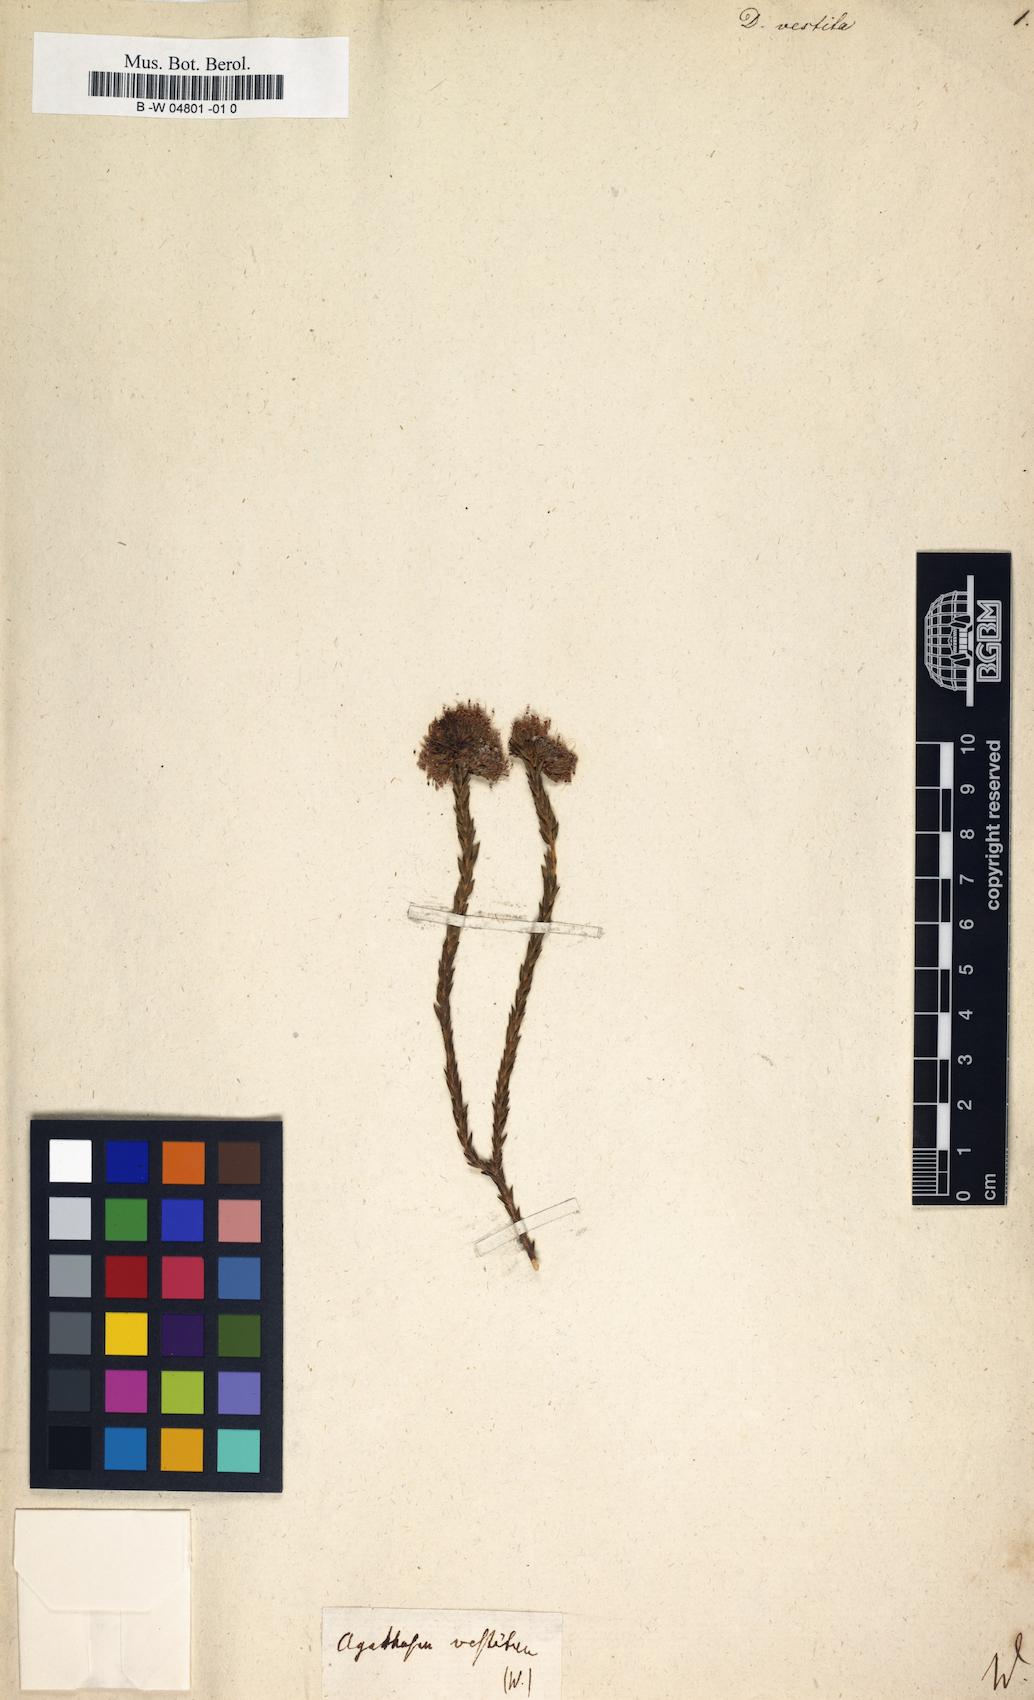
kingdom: Plantae
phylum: Tracheophyta
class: Magnoliopsida
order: Sapindales
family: Rutaceae
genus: Agathosma
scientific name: Agathosma imbricata
